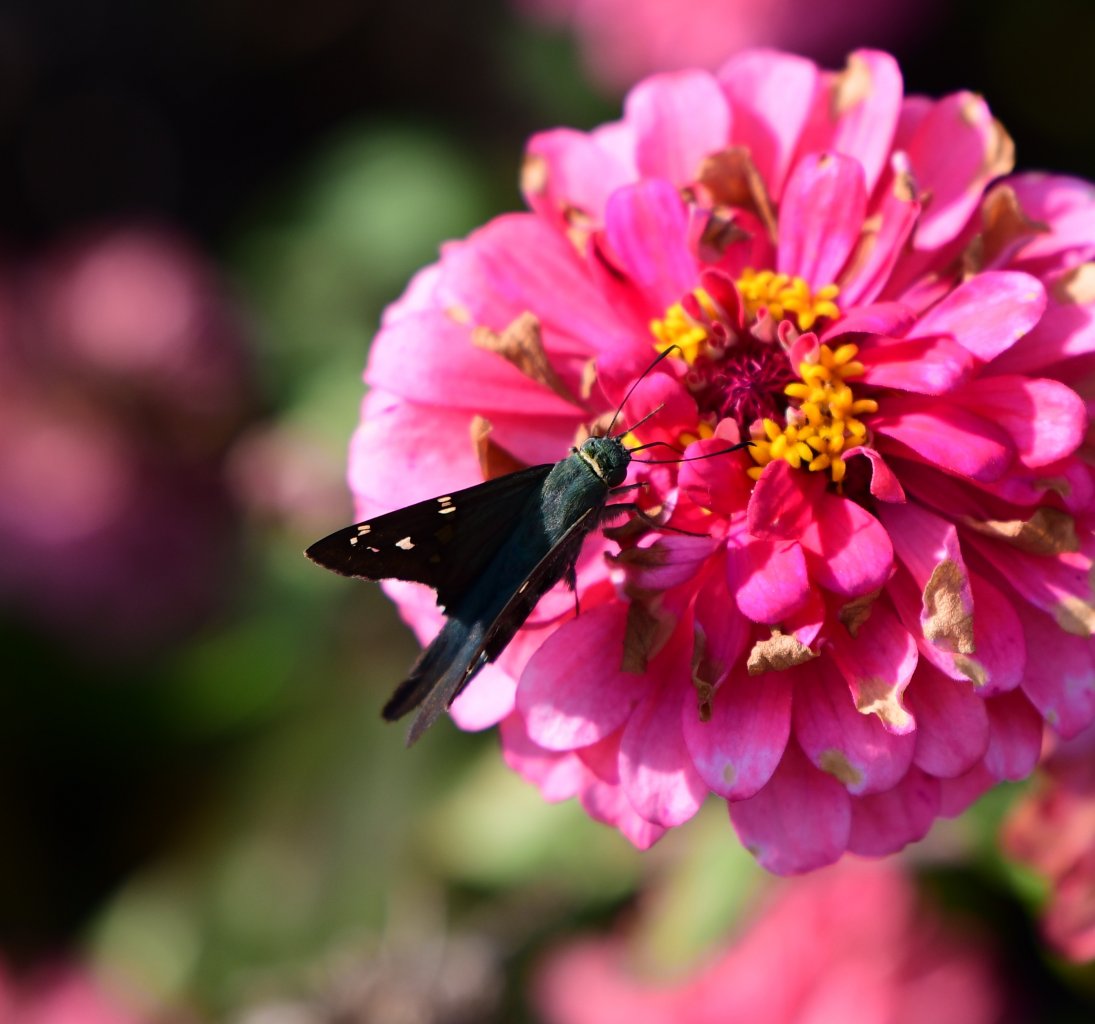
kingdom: Animalia
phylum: Arthropoda
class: Insecta
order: Lepidoptera
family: Hesperiidae
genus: Urbanus
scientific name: Urbanus proteus
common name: Long-tailed Skipper
